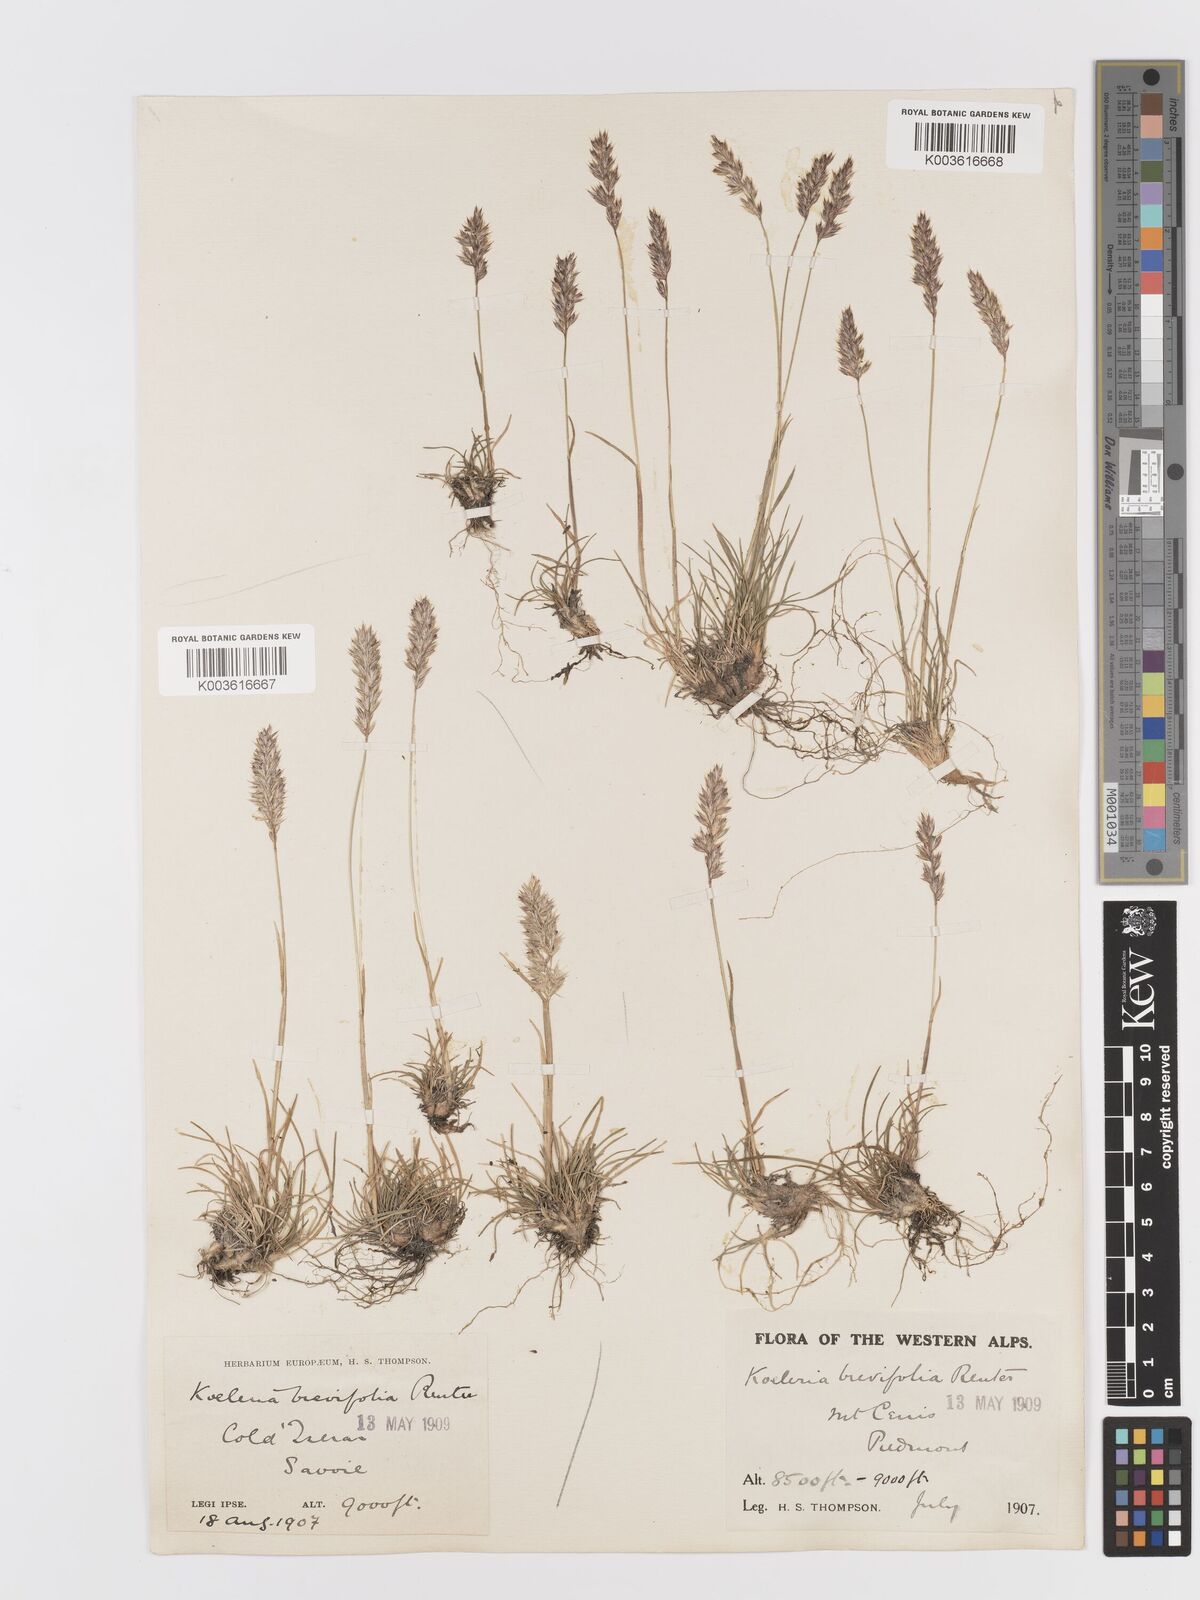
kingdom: Plantae
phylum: Tracheophyta
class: Liliopsida
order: Poales
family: Poaceae
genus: Koeleria
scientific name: Koeleria cenisia
